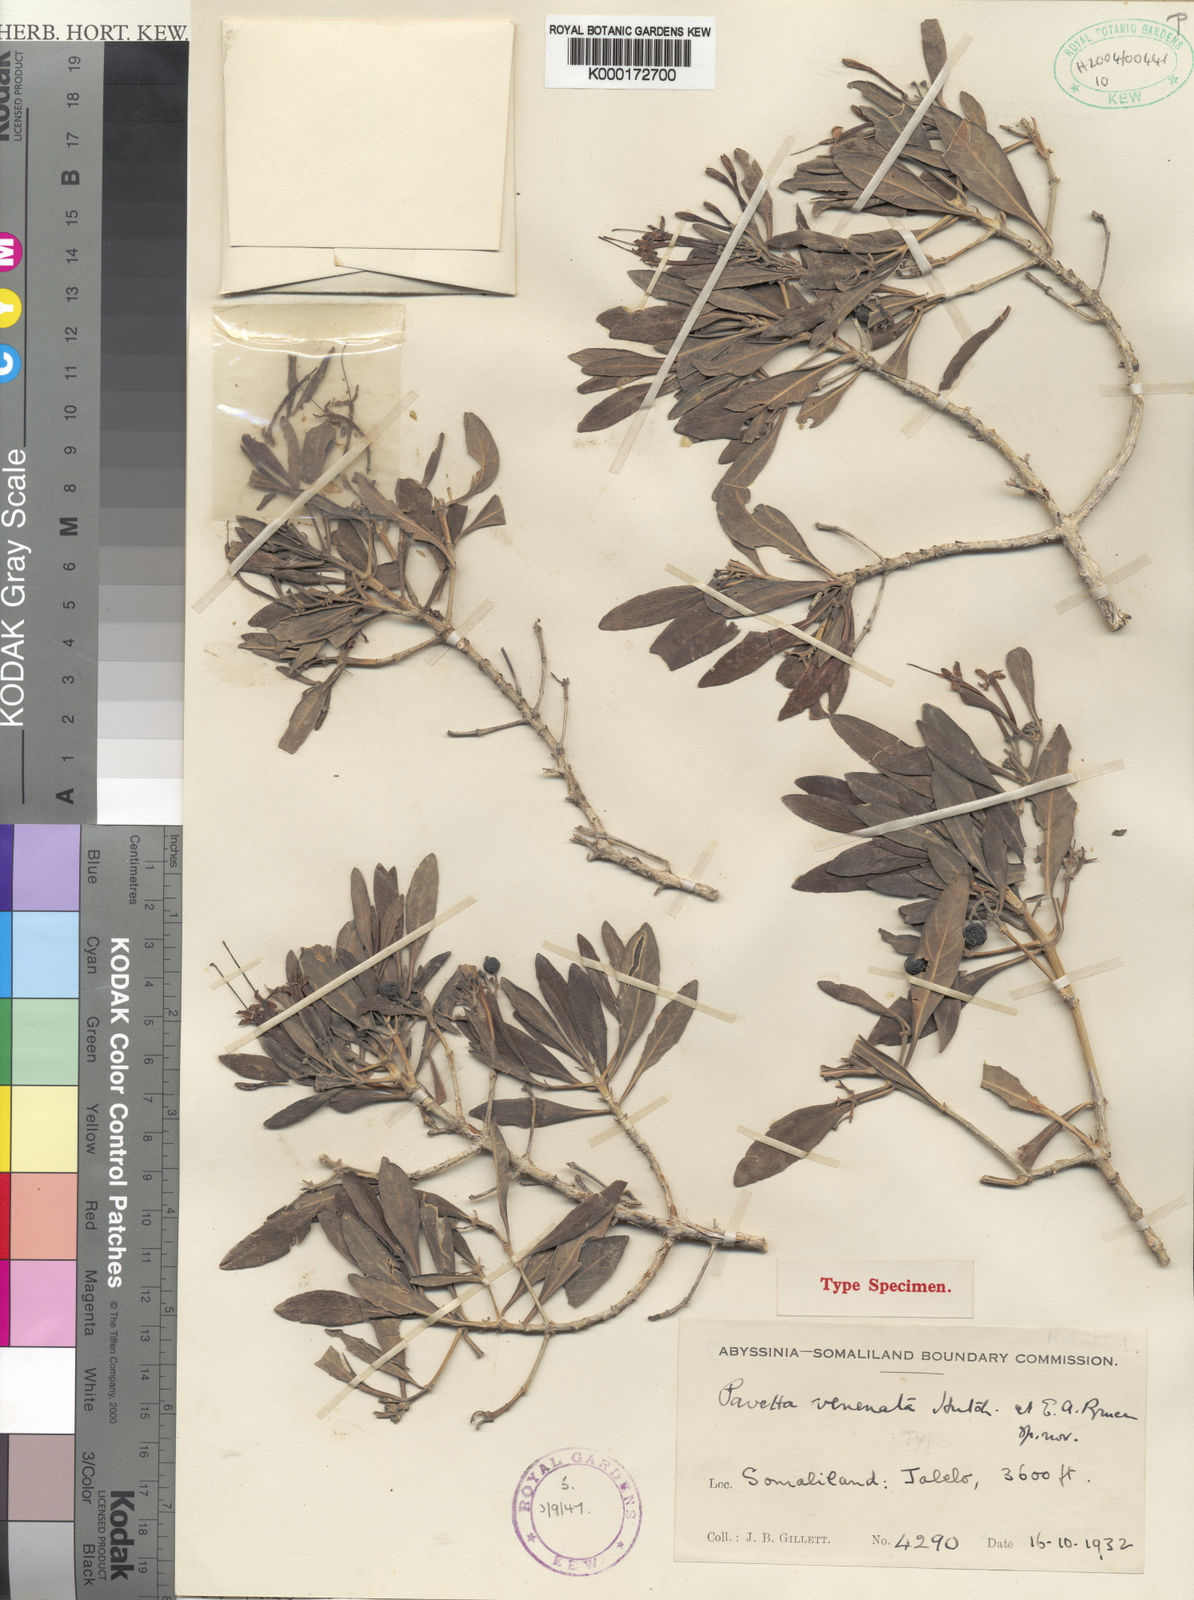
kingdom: Plantae
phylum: Tracheophyta
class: Magnoliopsida
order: Gentianales
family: Rubiaceae
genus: Pavetta
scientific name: Pavetta venenata
